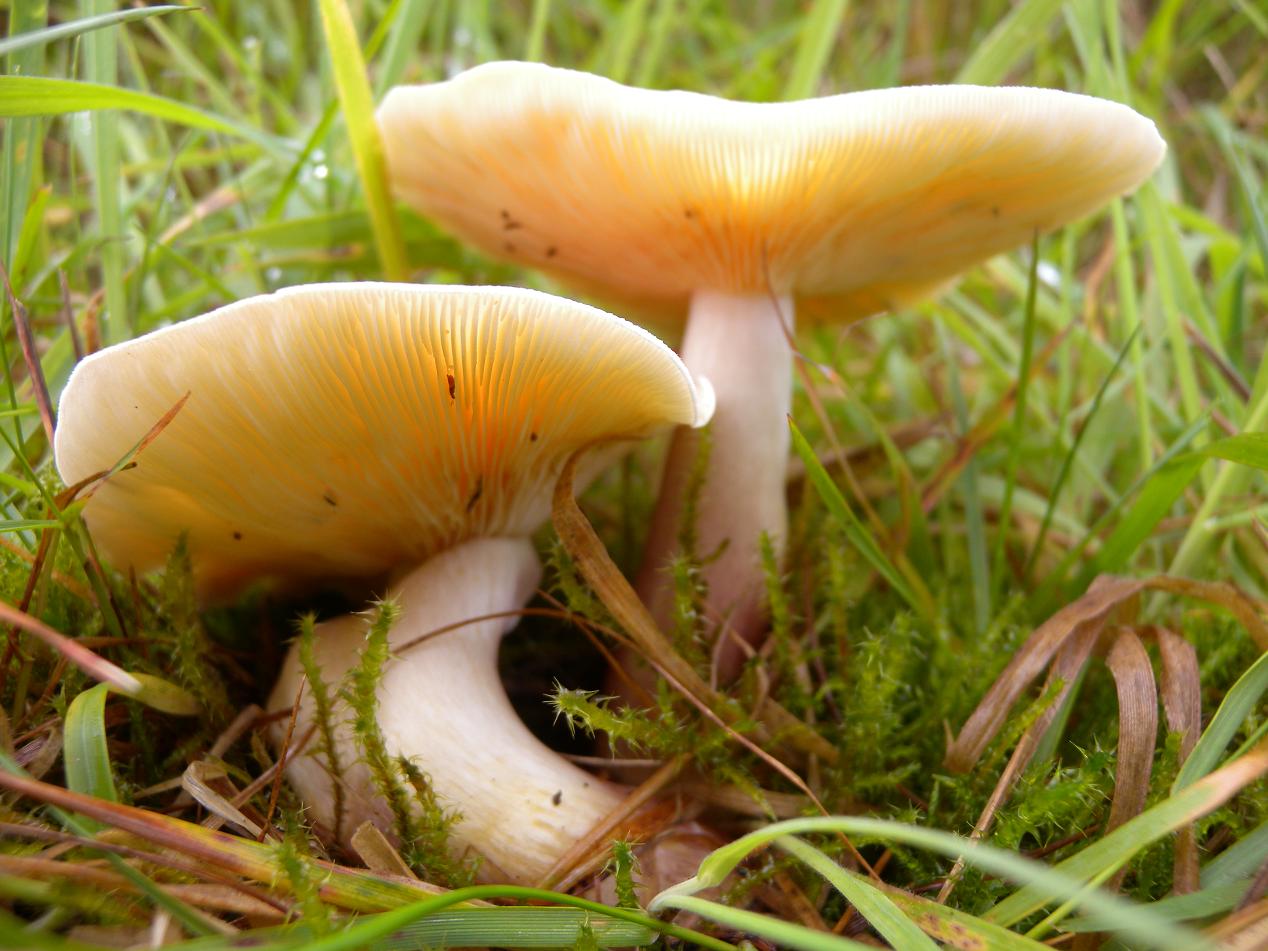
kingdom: Fungi
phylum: Basidiomycota
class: Agaricomycetes
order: Agaricales
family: Tricholomataceae
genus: Tricholomopsis
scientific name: Tricholomopsis rutilans
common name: purpur-væbnerhat
